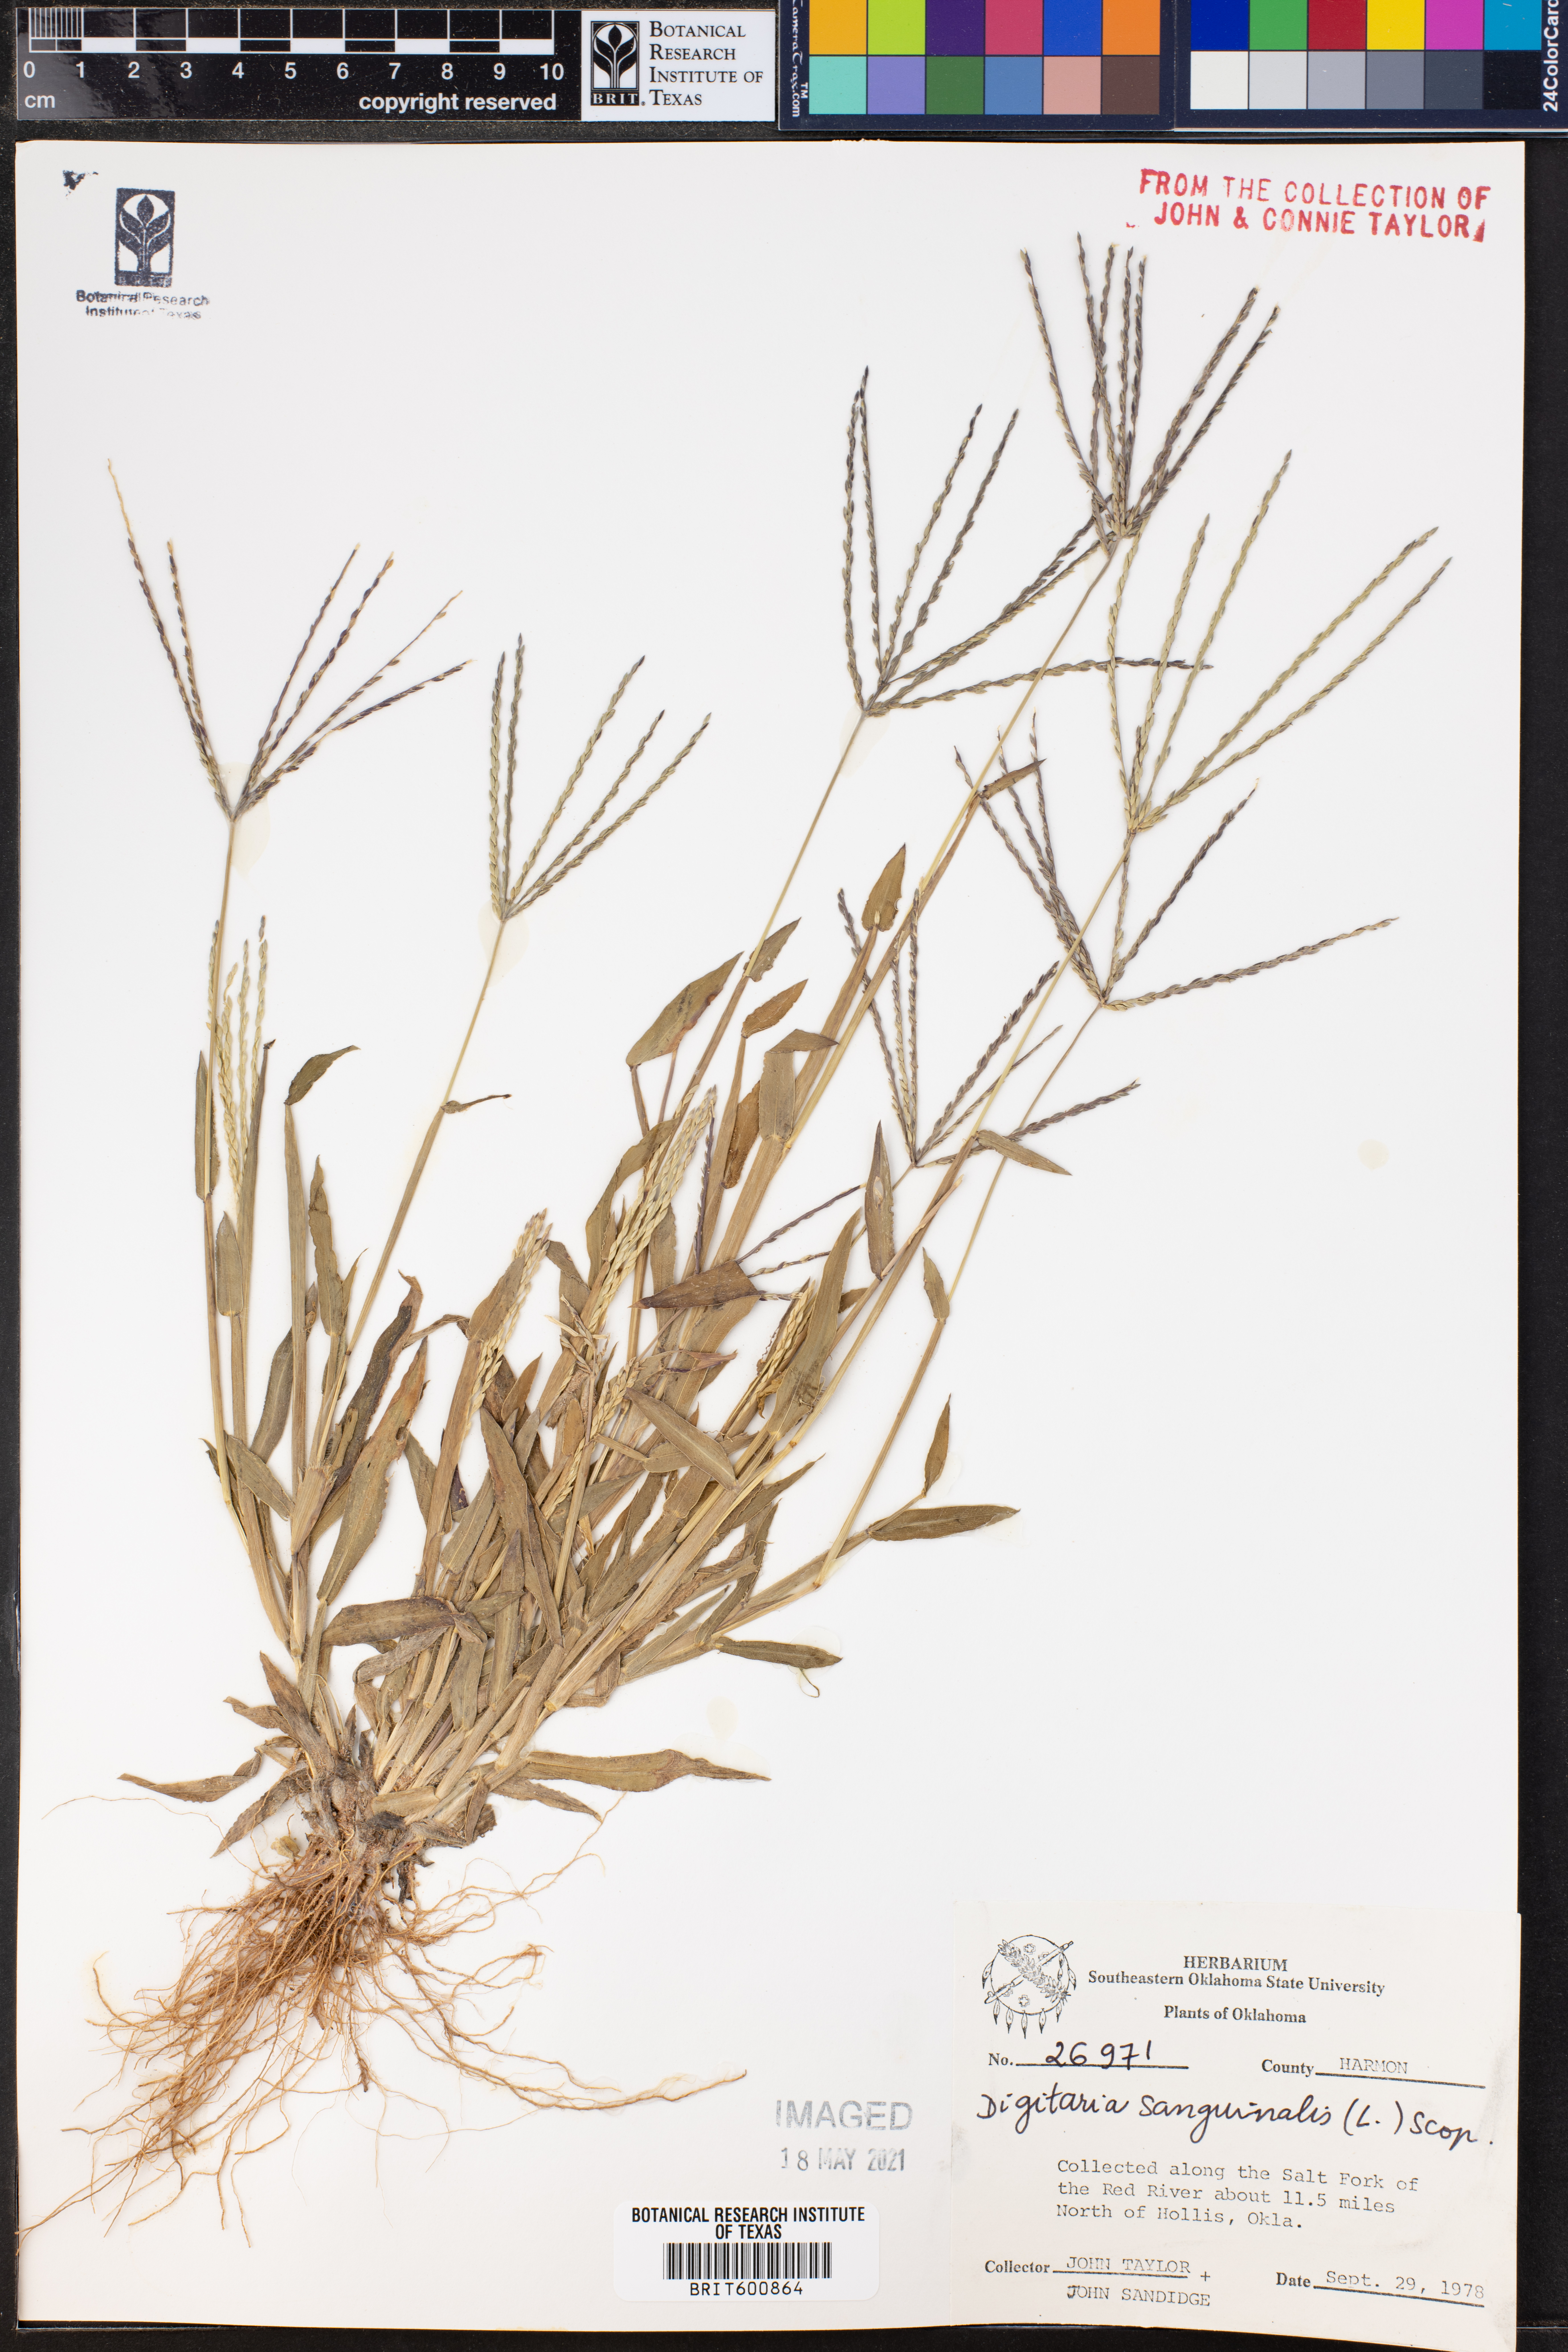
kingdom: Plantae
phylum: Tracheophyta
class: Liliopsida
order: Poales
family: Poaceae
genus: Digitaria
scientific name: Digitaria sanguinalis
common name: Hairy crabgrass
